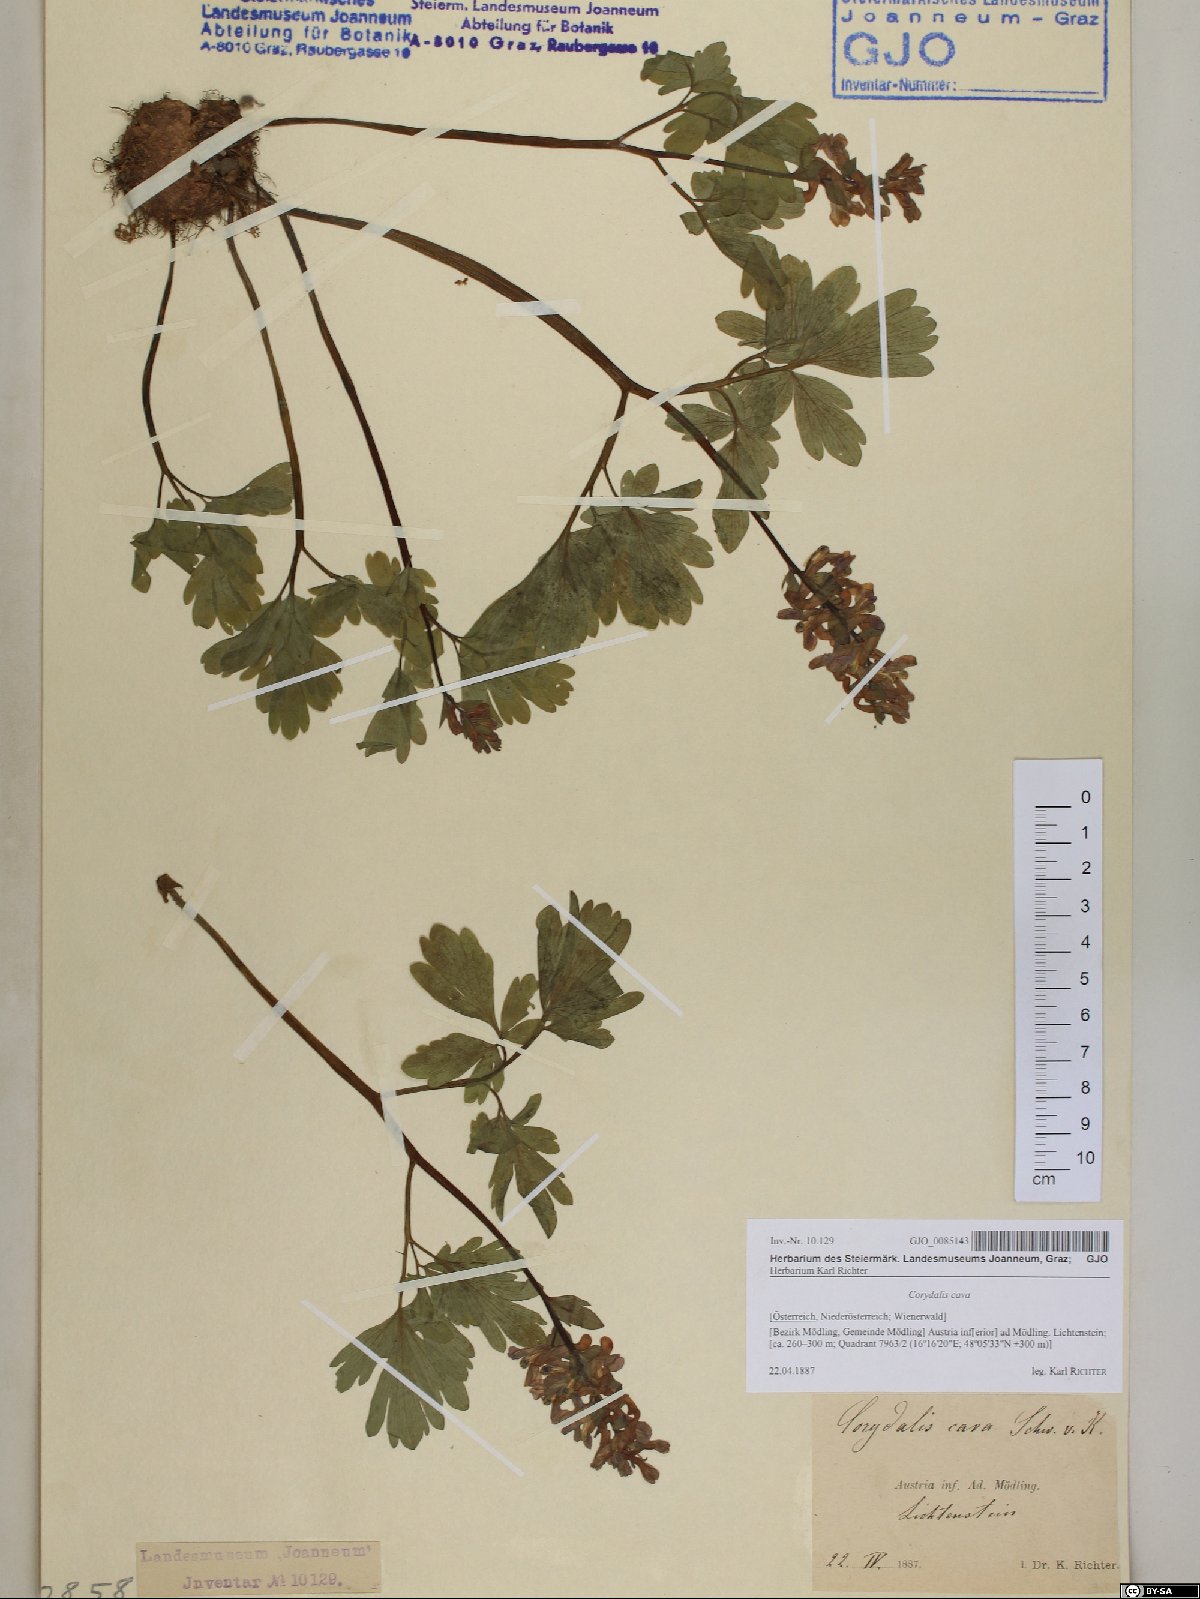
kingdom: Plantae
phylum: Tracheophyta
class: Magnoliopsida
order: Ranunculales
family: Papaveraceae
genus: Corydalis
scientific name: Corydalis cava
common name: Hollowroot
